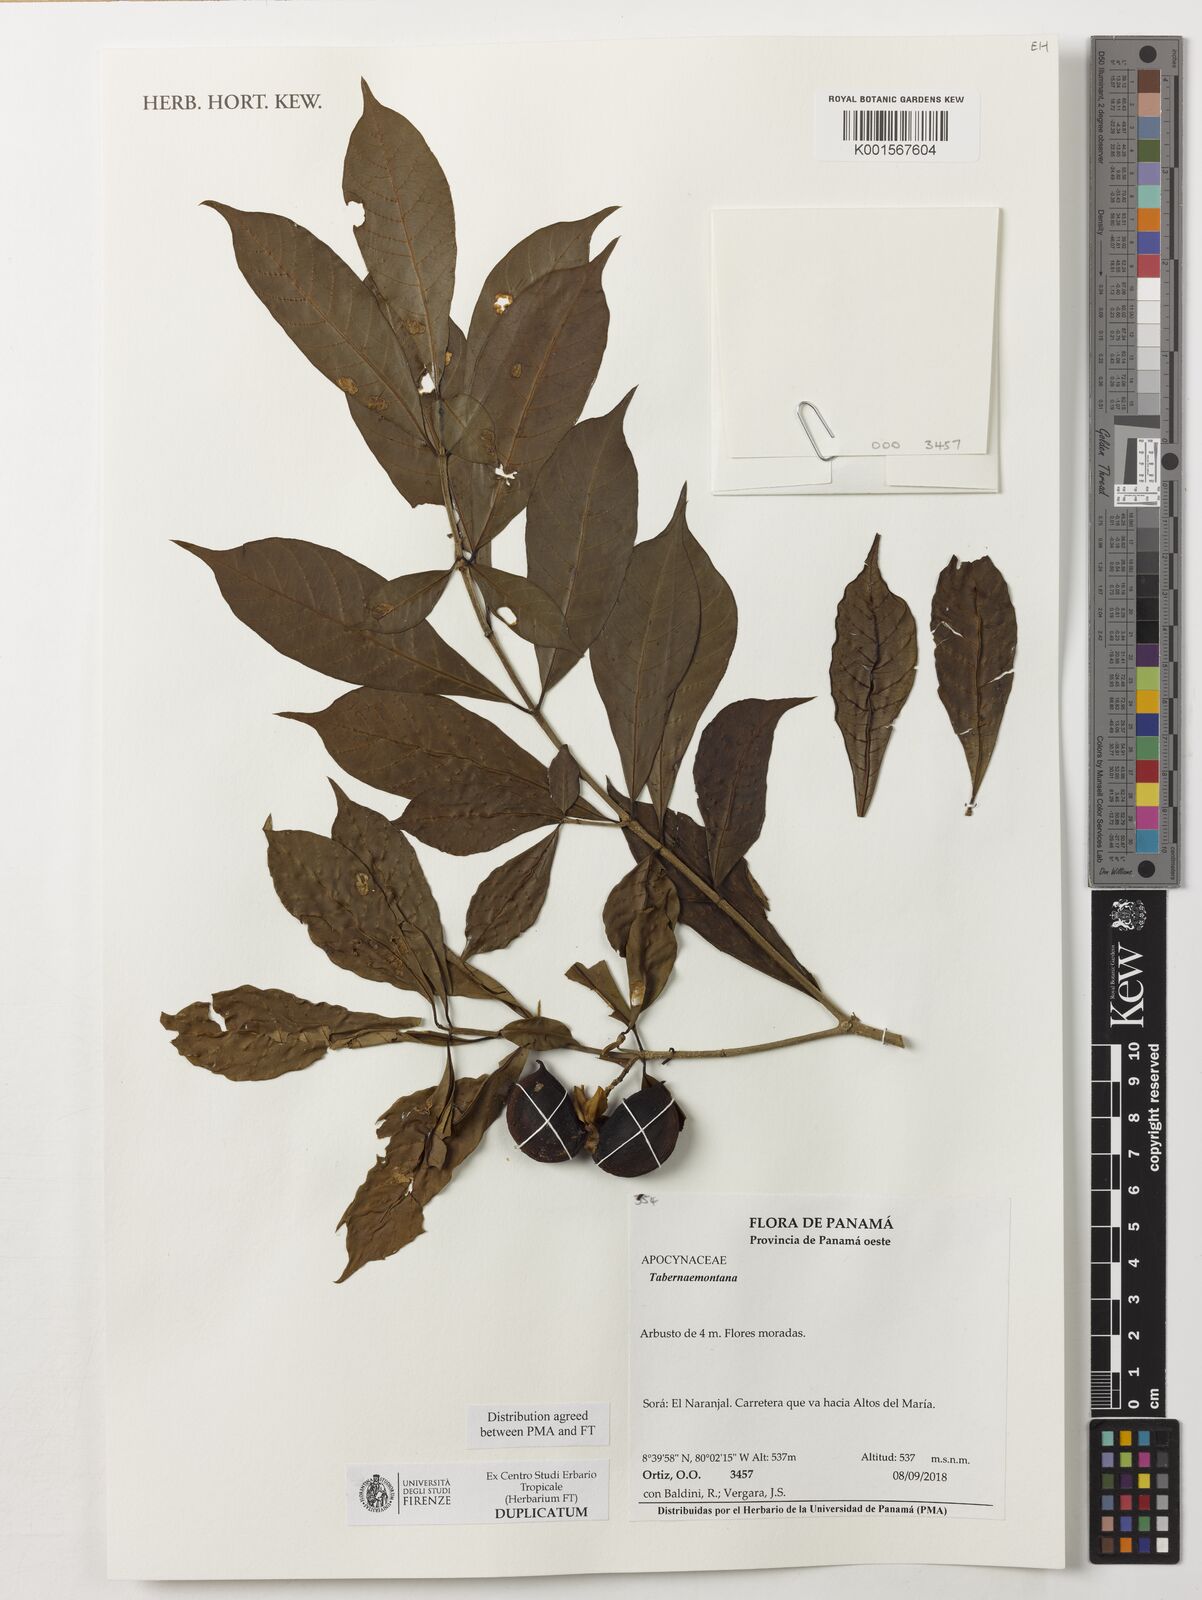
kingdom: Plantae
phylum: Tracheophyta
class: Magnoliopsida
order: Gentianales
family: Apocynaceae
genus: Tabernaemontana
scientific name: Tabernaemontana
